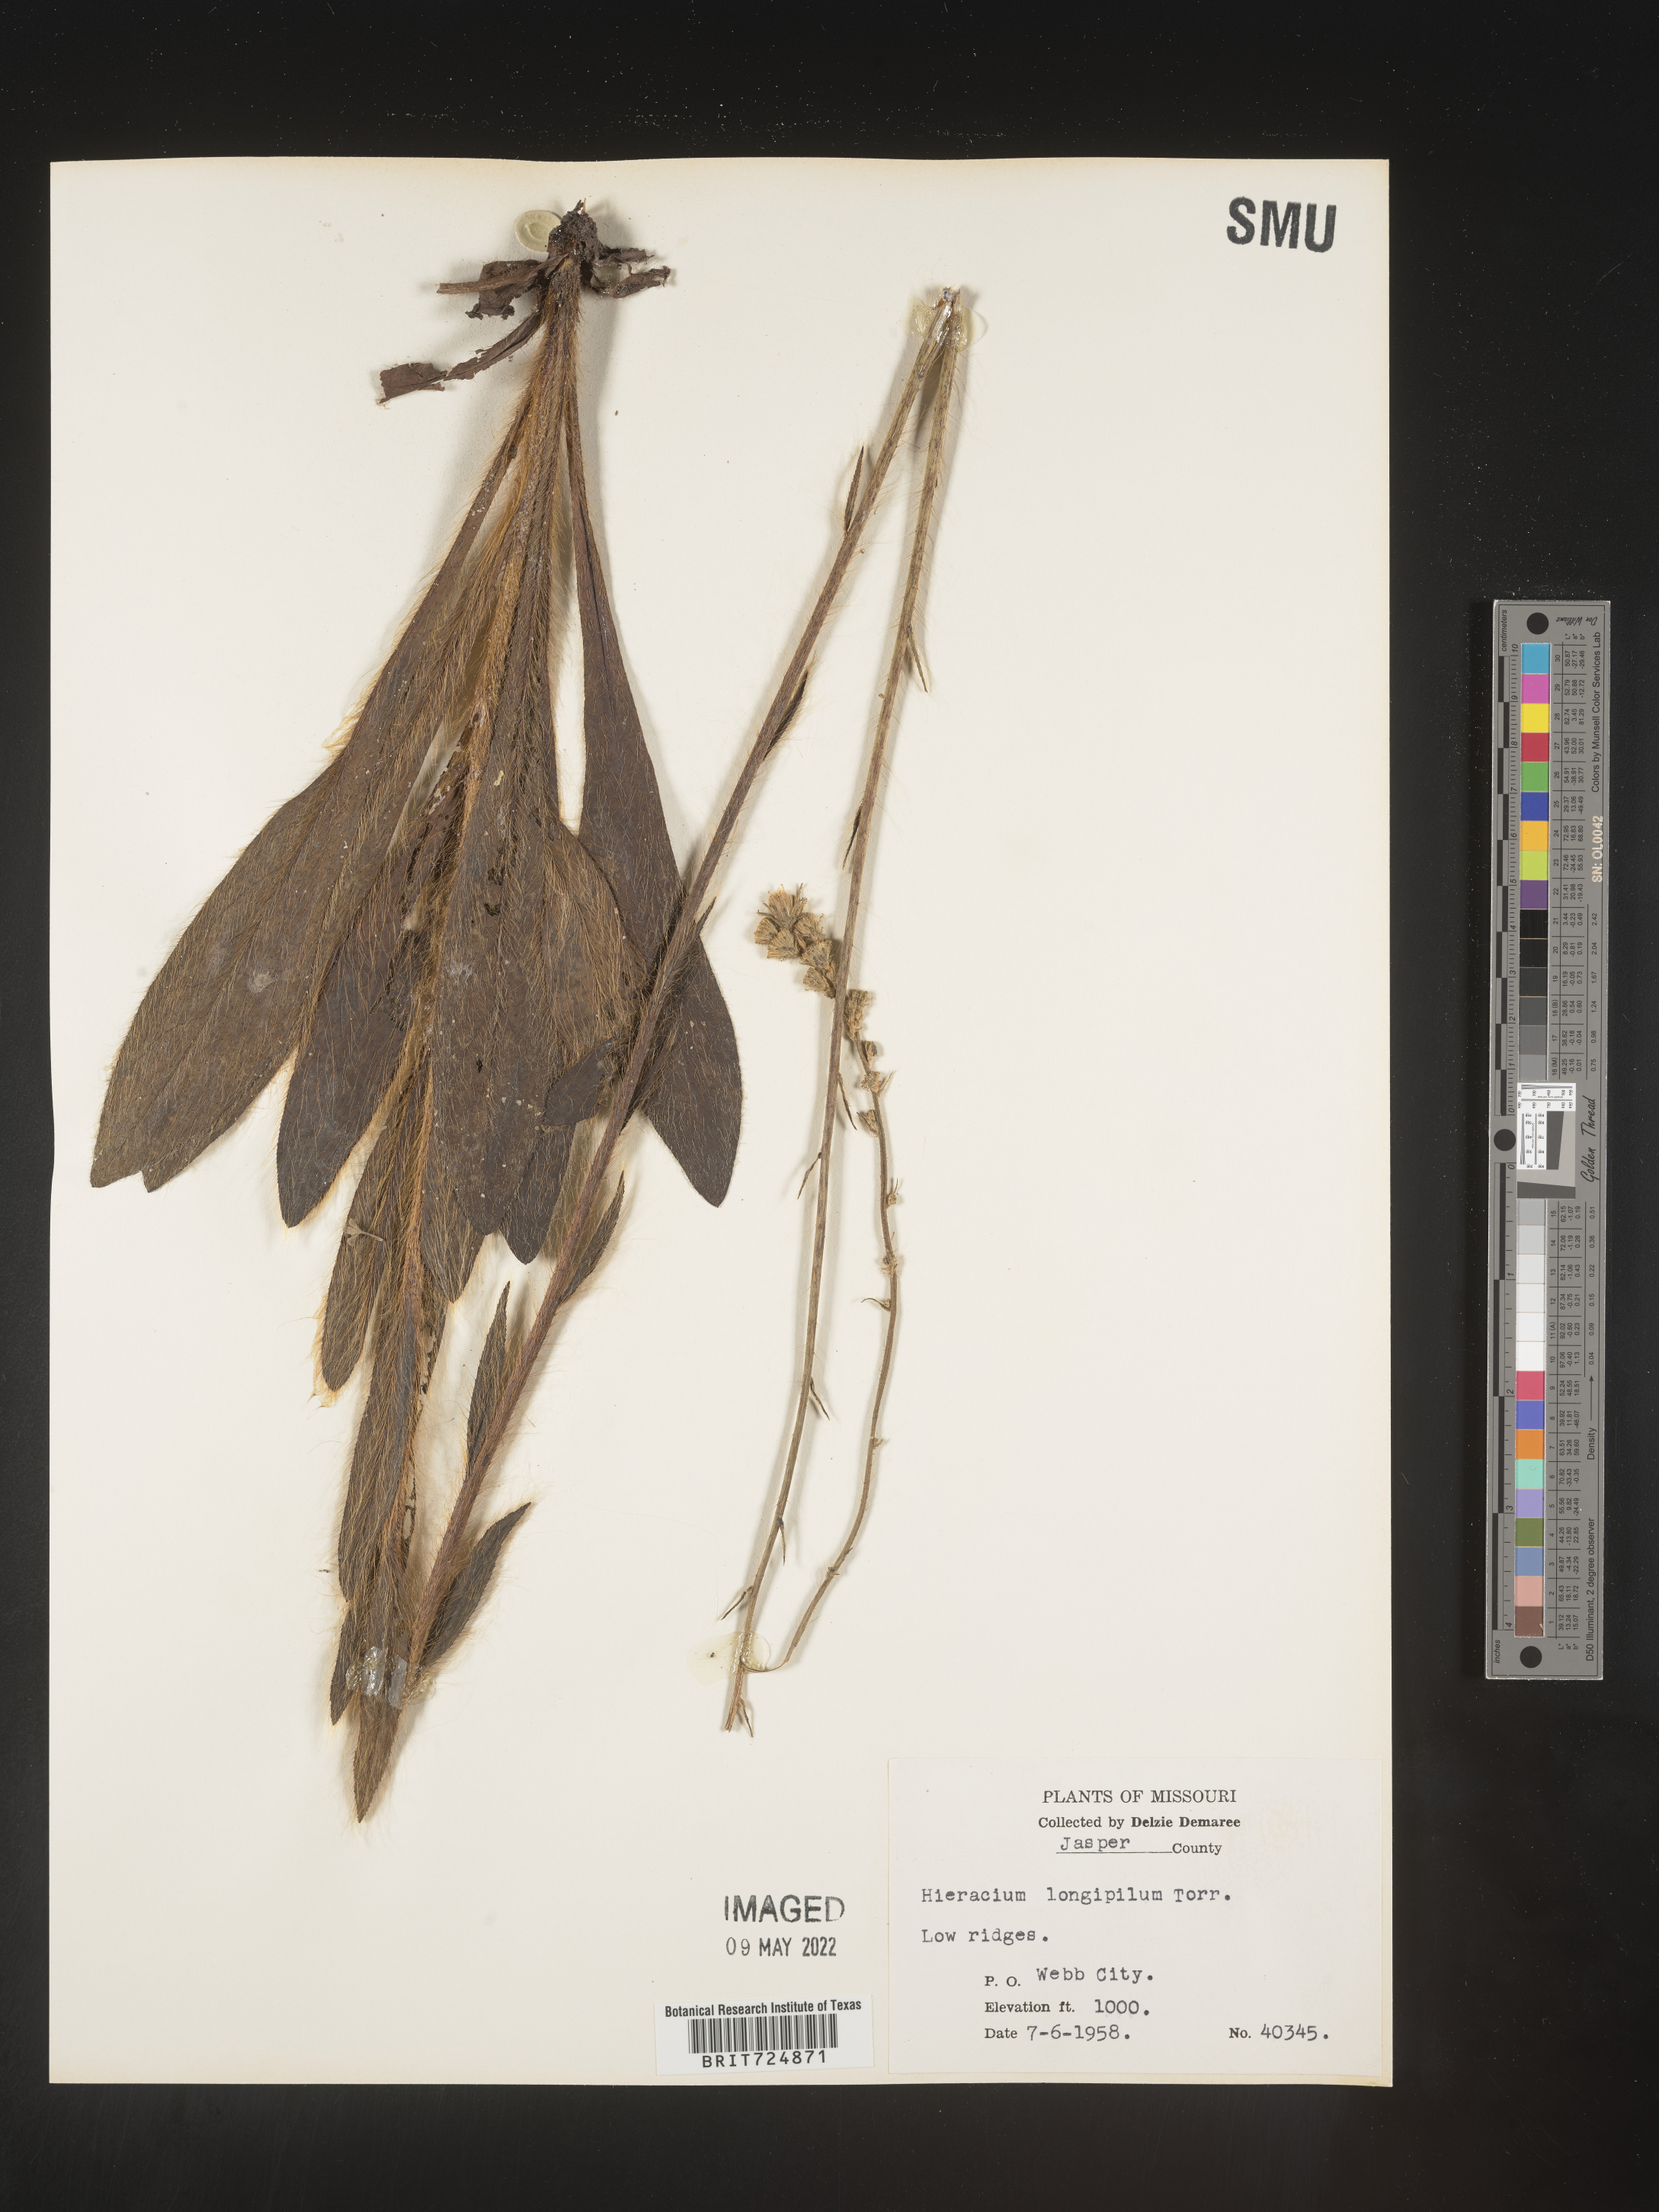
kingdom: Plantae
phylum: Tracheophyta
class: Magnoliopsida
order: Asterales
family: Asteraceae
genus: Hieracium
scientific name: Hieracium longipilum
